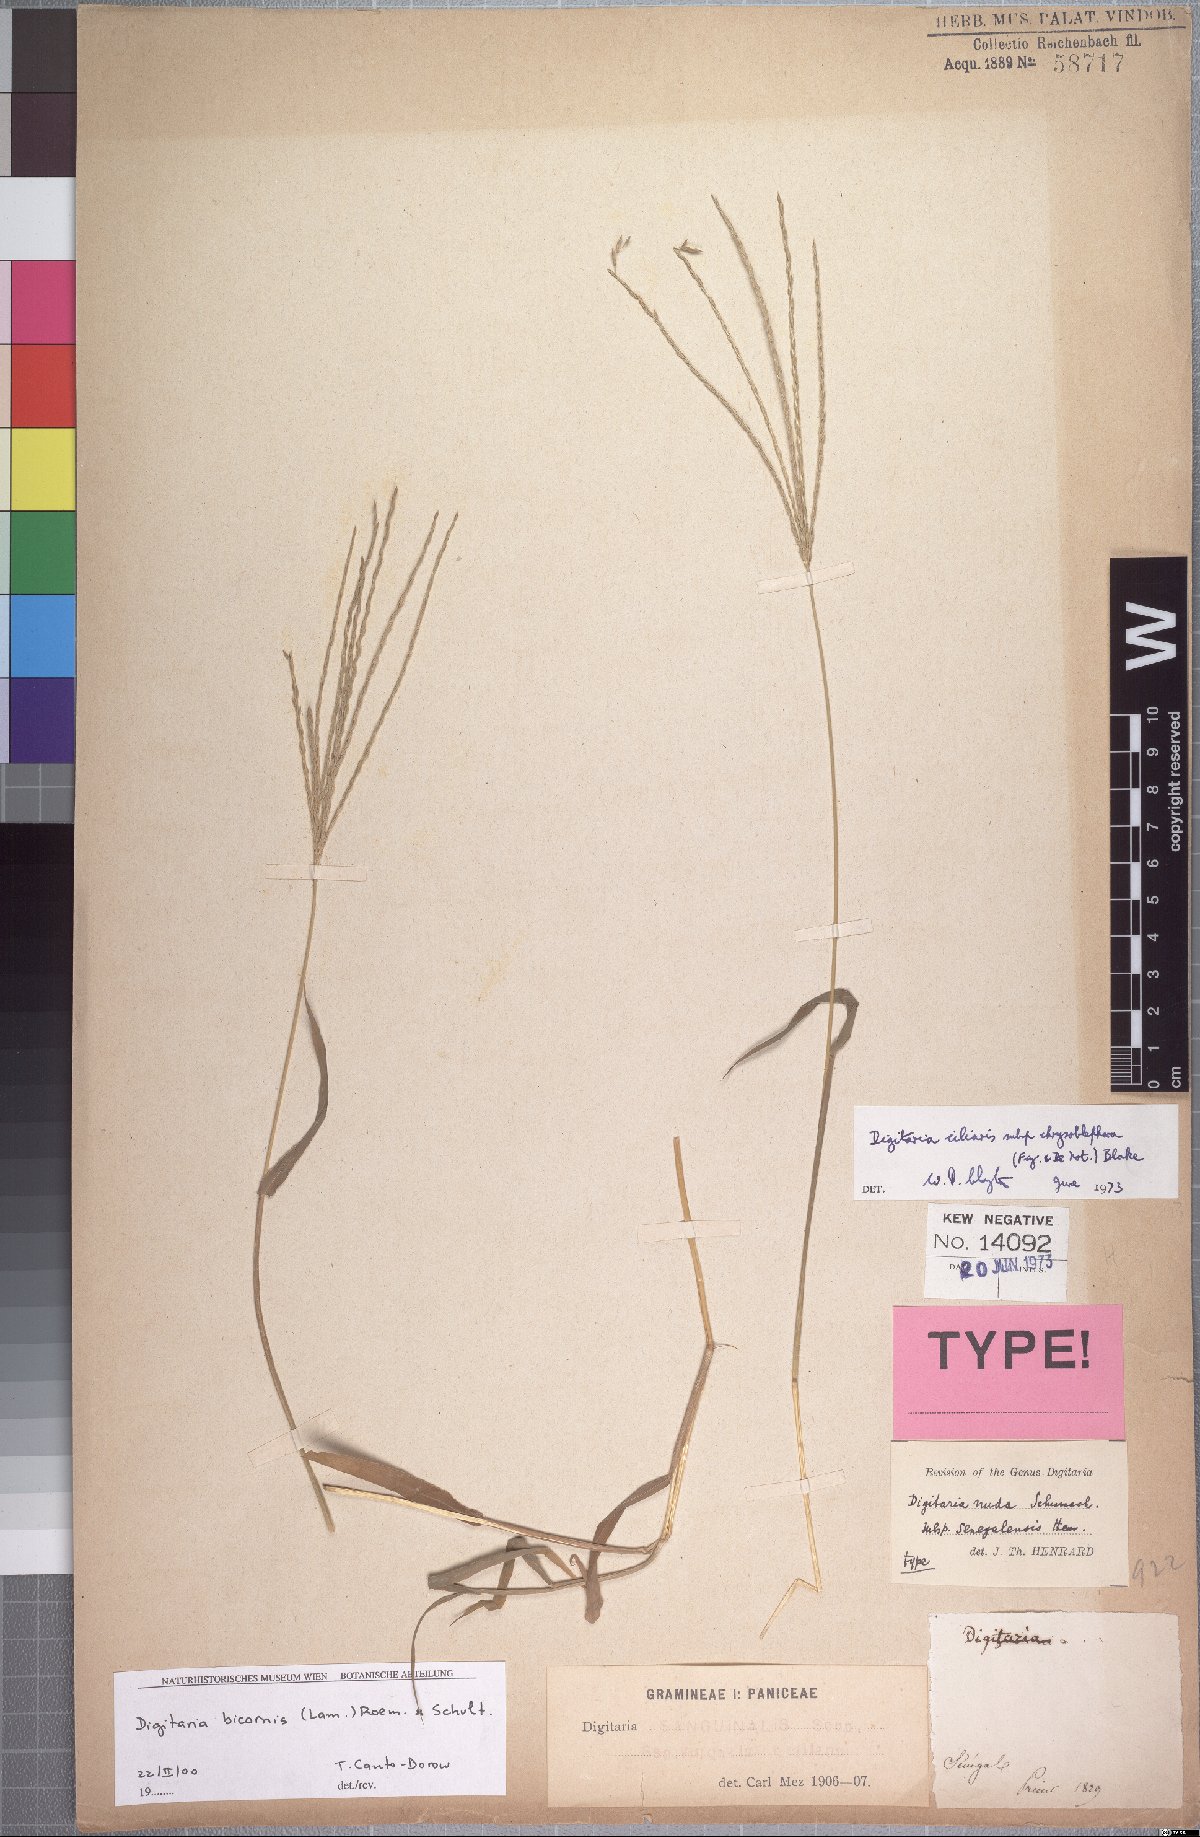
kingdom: Plantae
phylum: Tracheophyta
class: Liliopsida
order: Poales
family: Poaceae
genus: Digitaria
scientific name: Digitaria bicornis
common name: Asian crabgrass
